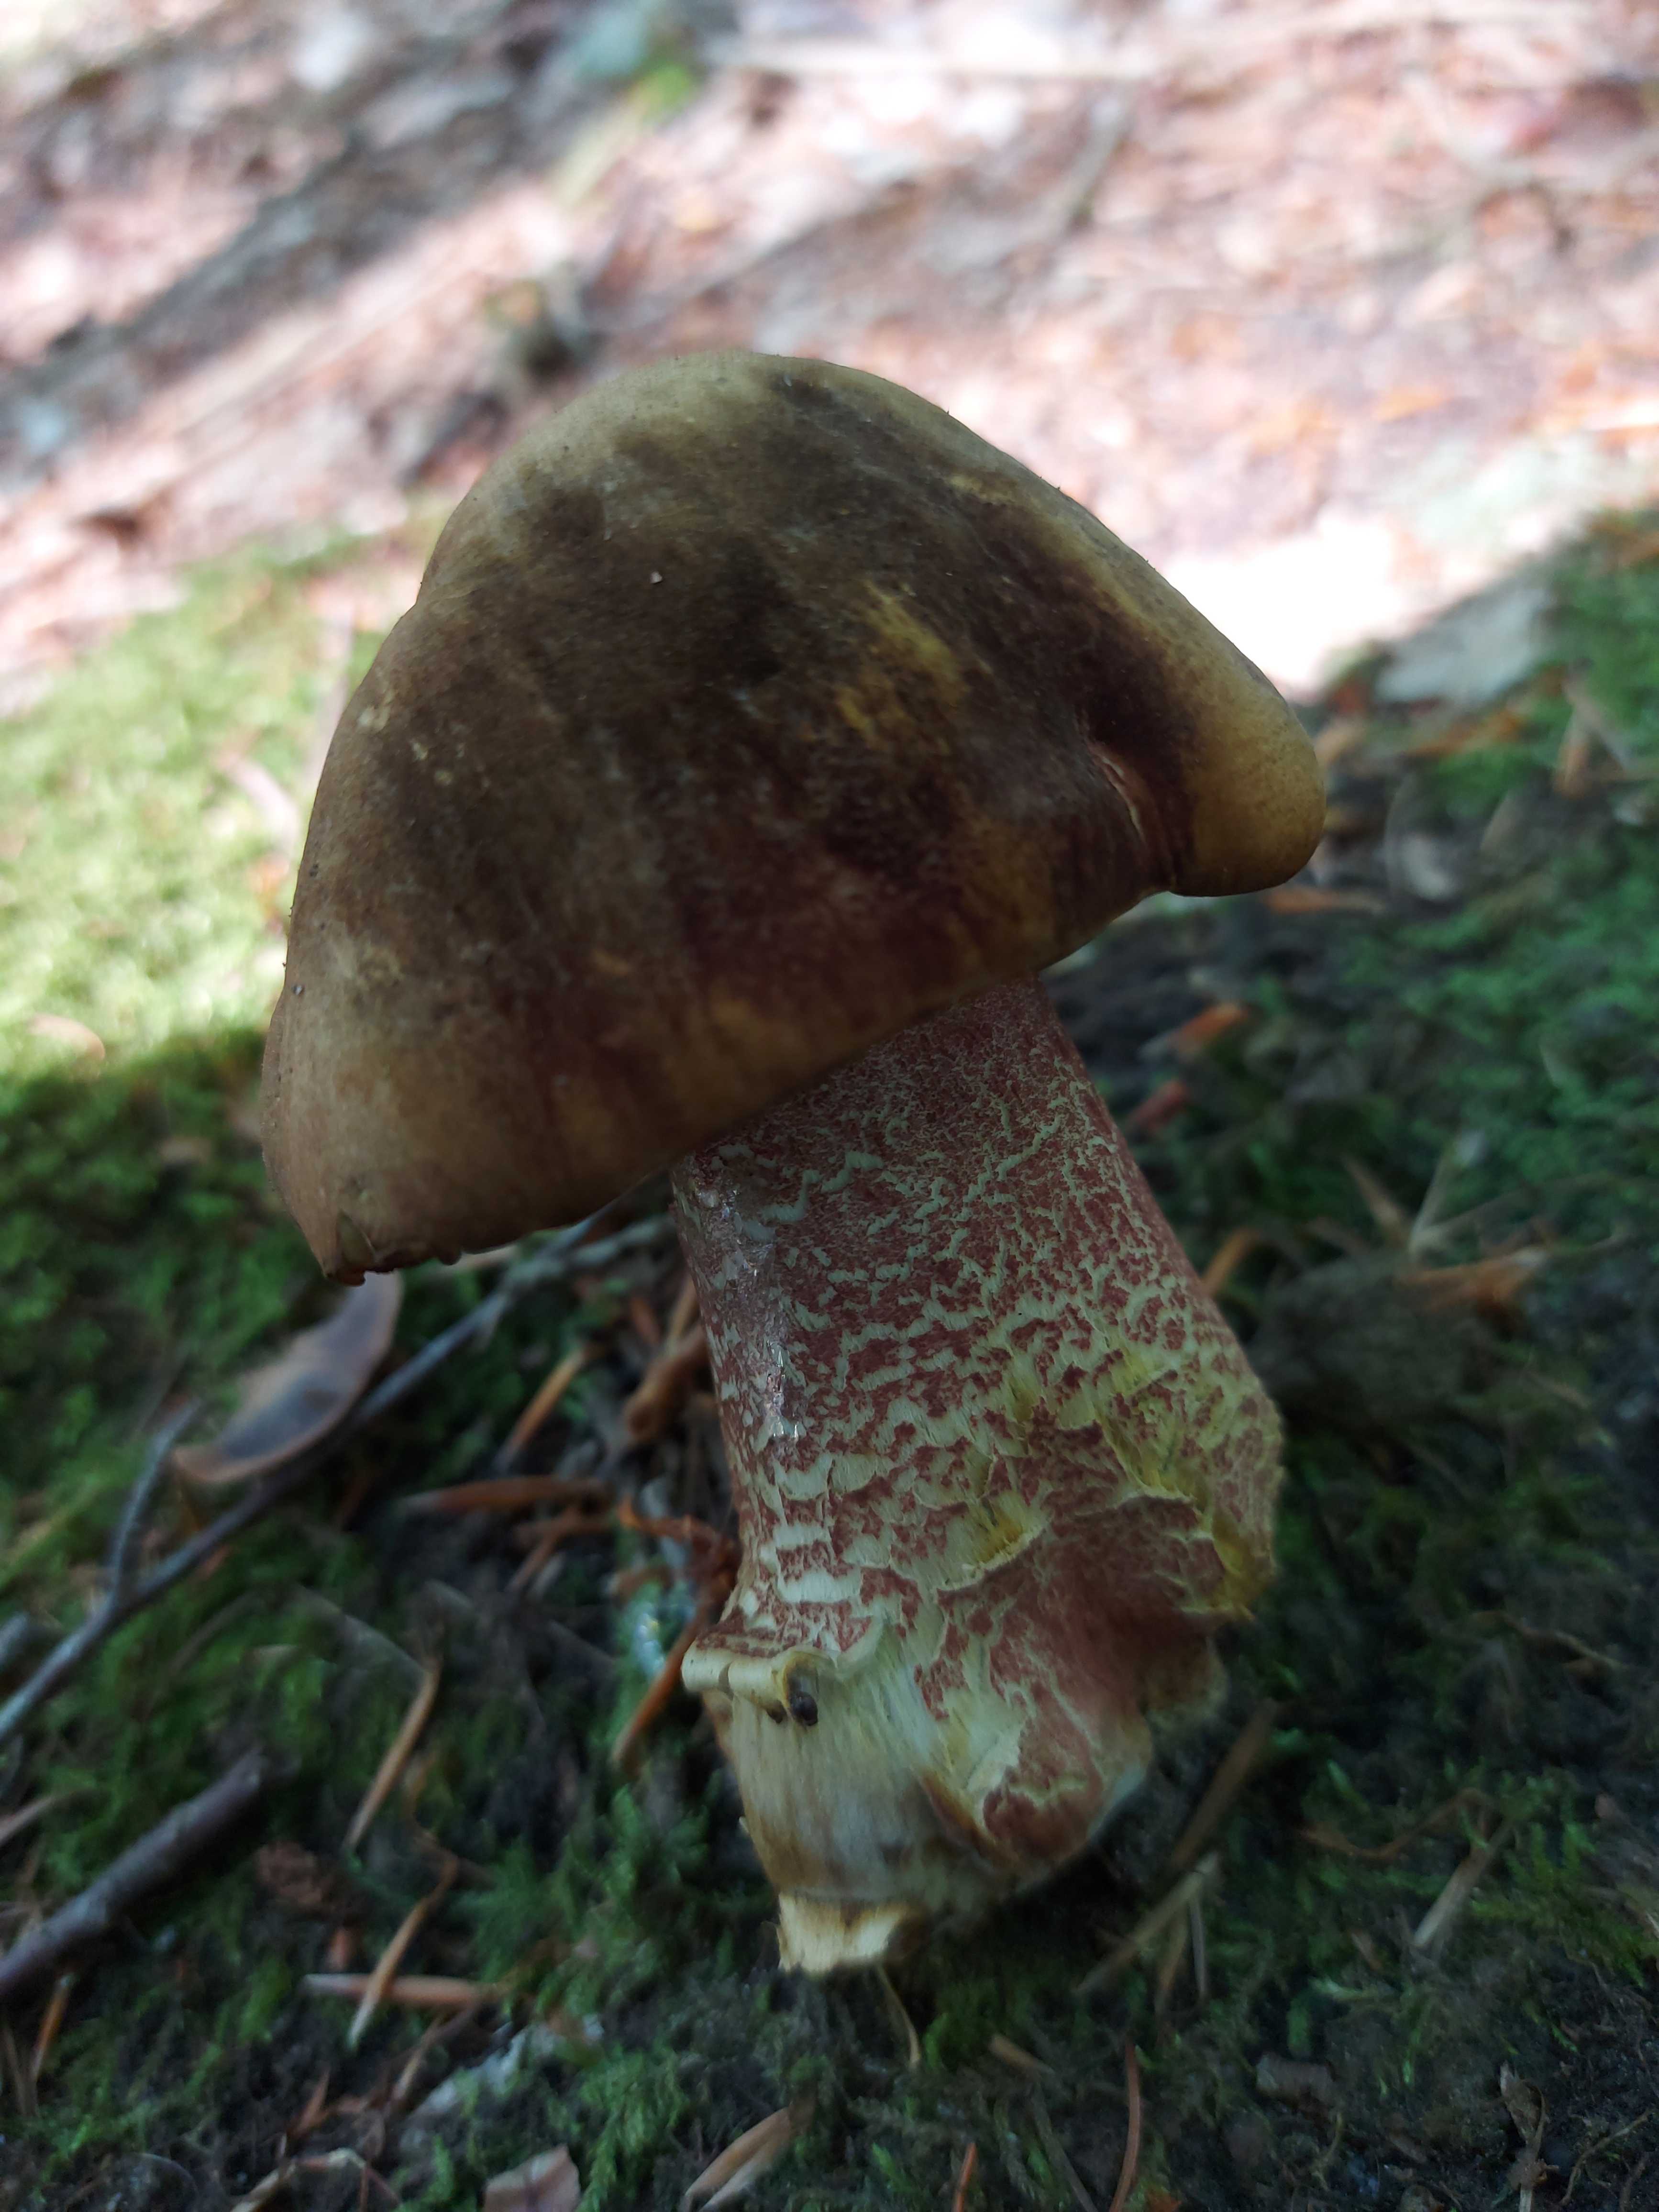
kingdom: Fungi
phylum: Basidiomycota
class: Agaricomycetes
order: Boletales
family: Boletaceae
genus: Neoboletus
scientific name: Neoboletus erythropus
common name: punktstokket indigorørhat
